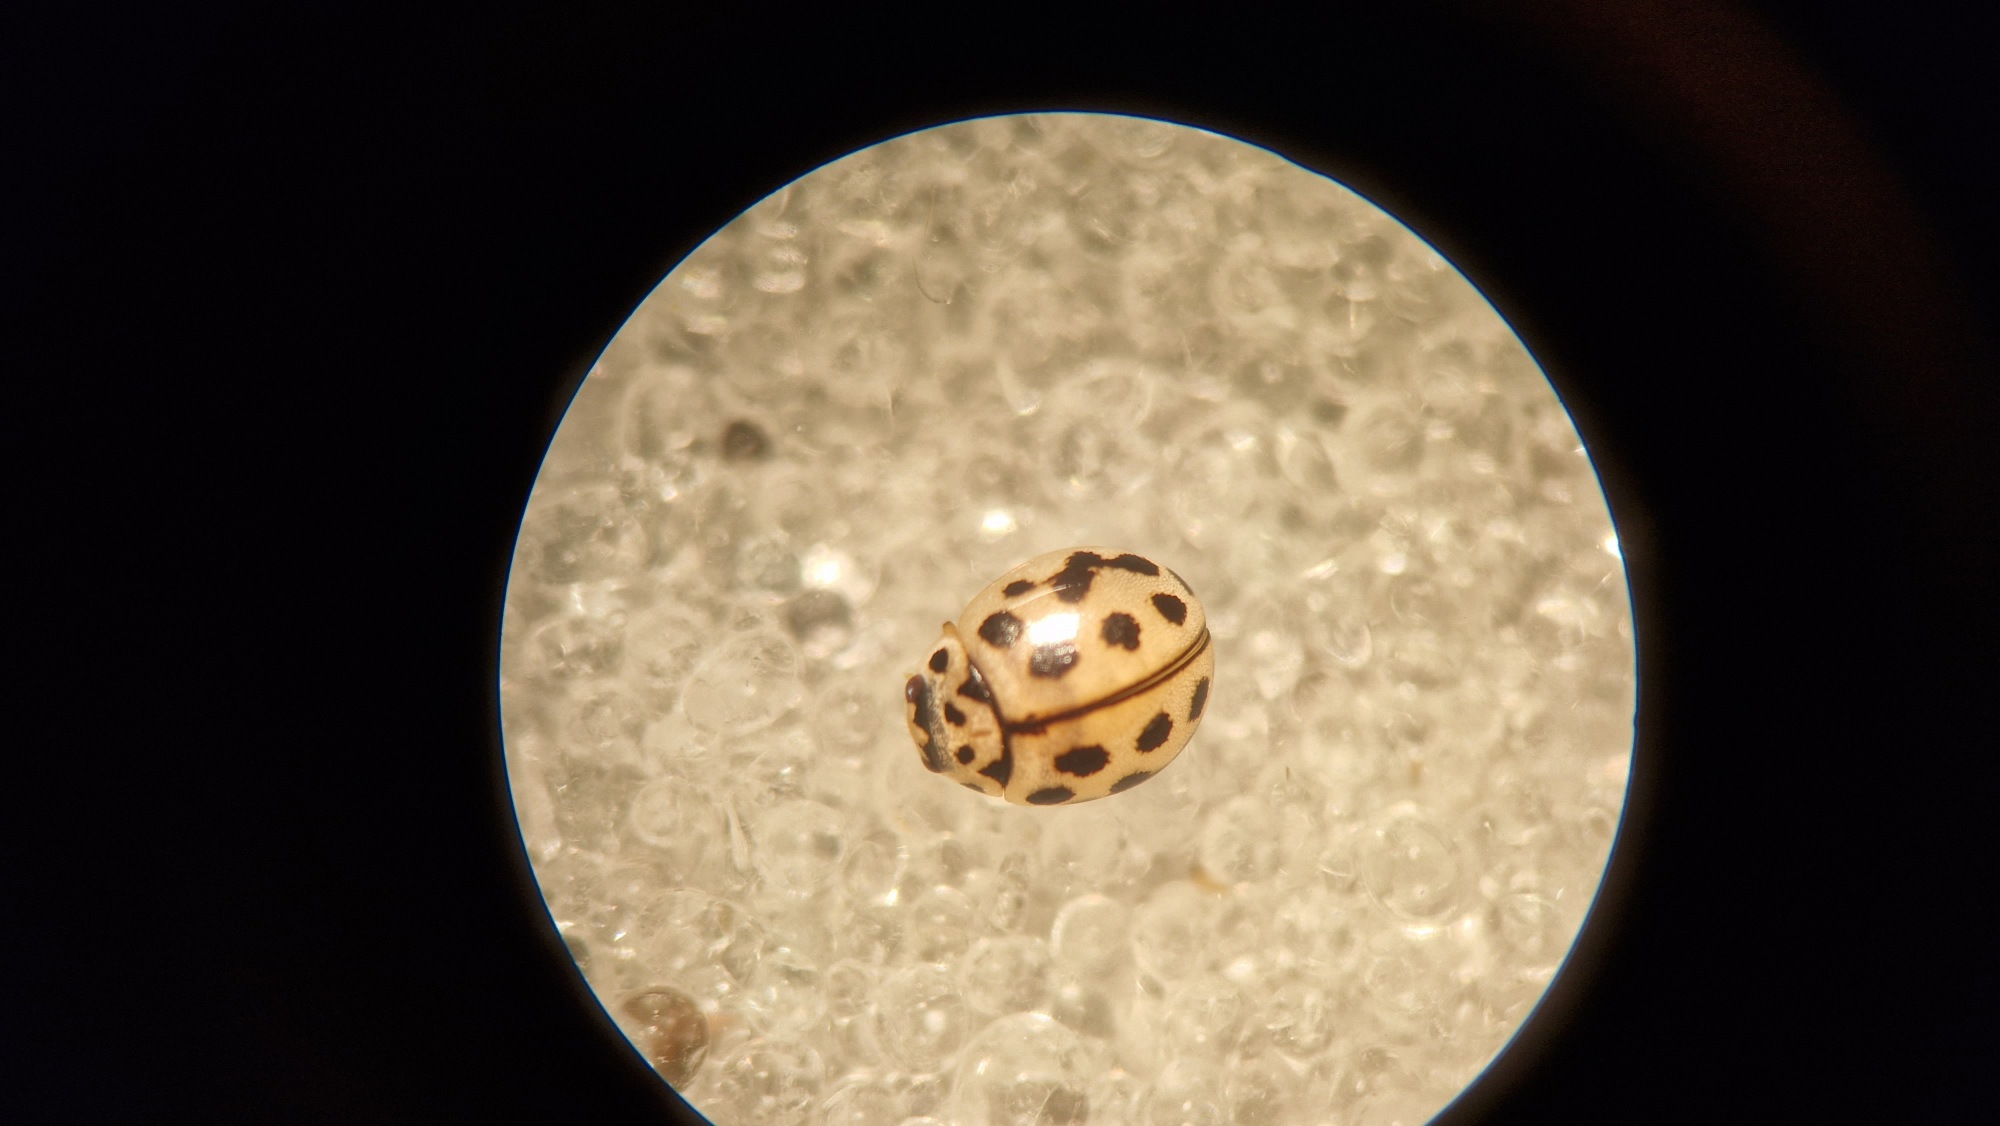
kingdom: Animalia
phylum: Arthropoda
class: Insecta
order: Coleoptera
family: Coccinellidae
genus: Tytthaspis
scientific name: Tytthaspis sedecimpunctata
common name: Sekstenprikket mariehøne
